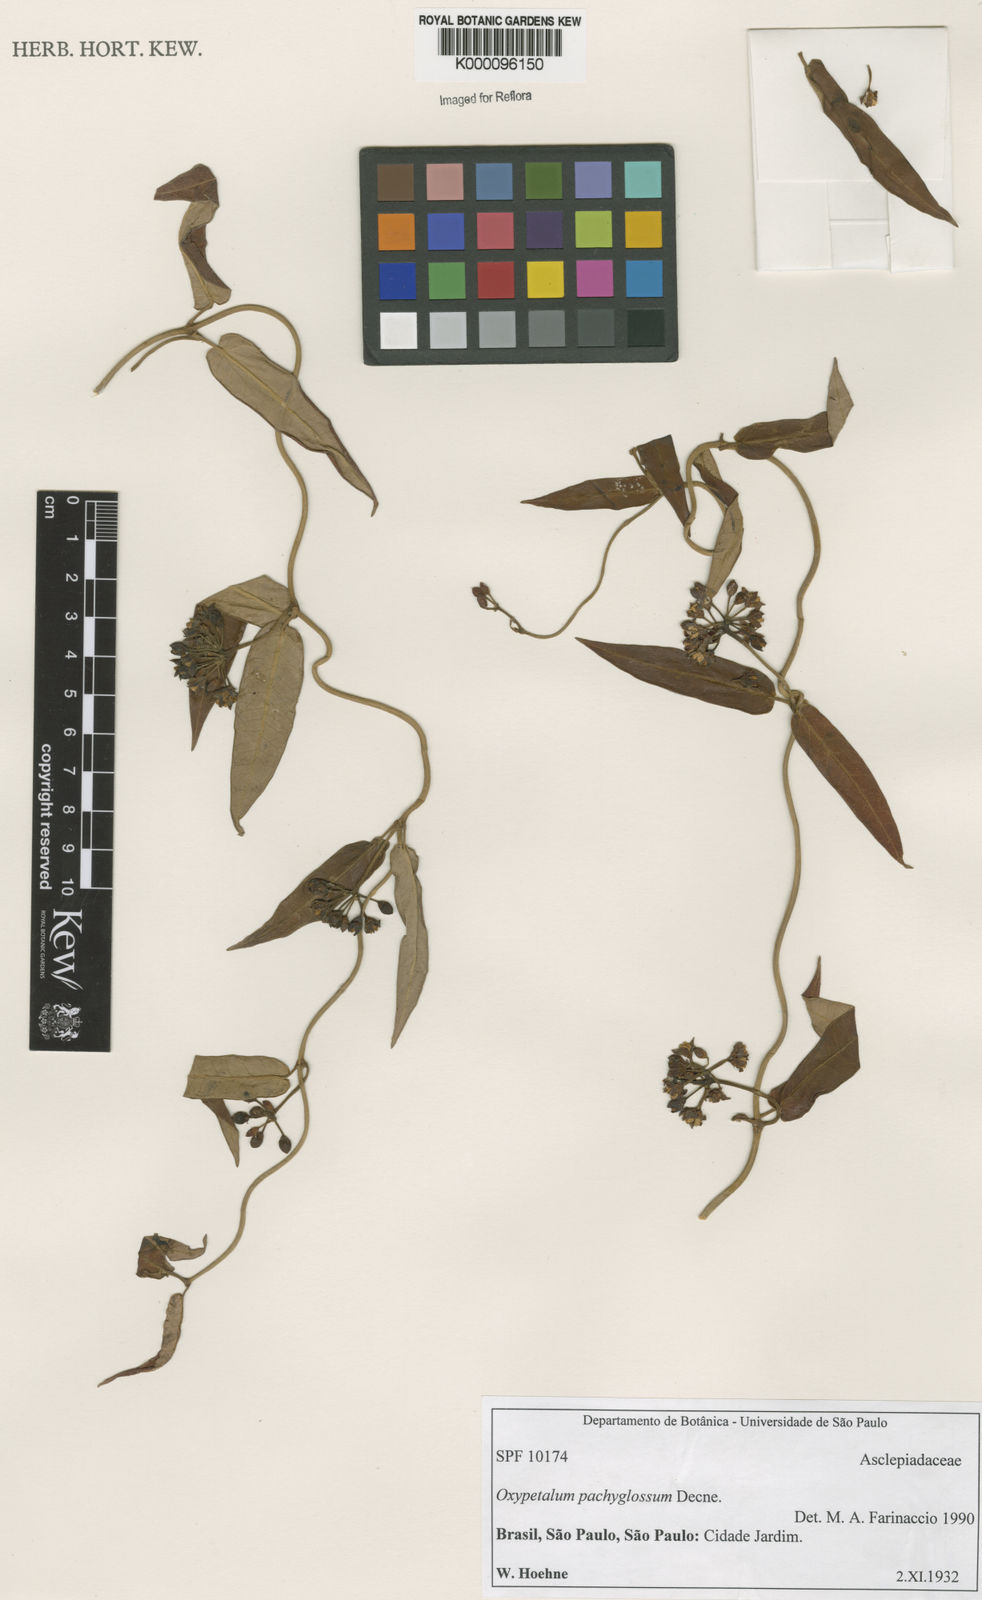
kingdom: Plantae
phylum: Tracheophyta
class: Magnoliopsida
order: Gentianales
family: Apocynaceae
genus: Oxypetalum
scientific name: Oxypetalum pachyglossum
